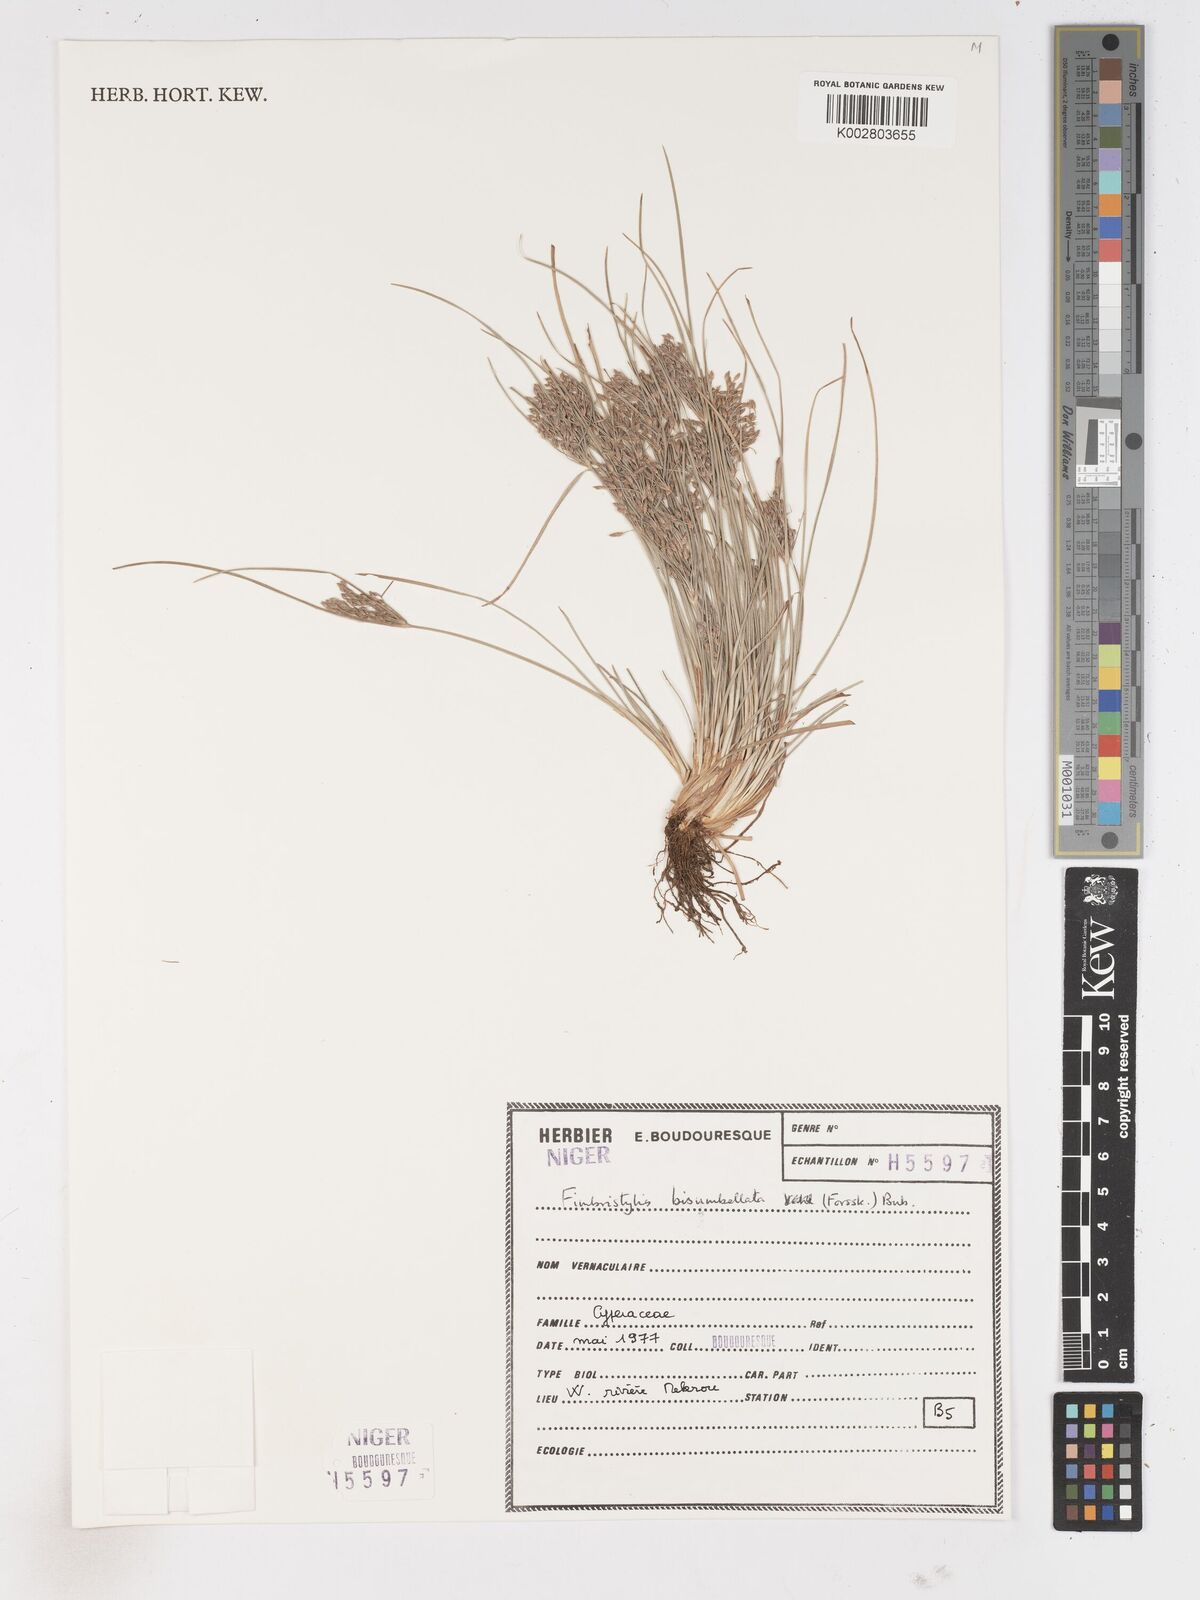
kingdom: Plantae
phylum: Tracheophyta
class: Liliopsida
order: Poales
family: Cyperaceae
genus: Fimbristylis
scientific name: Fimbristylis bisumbellata
